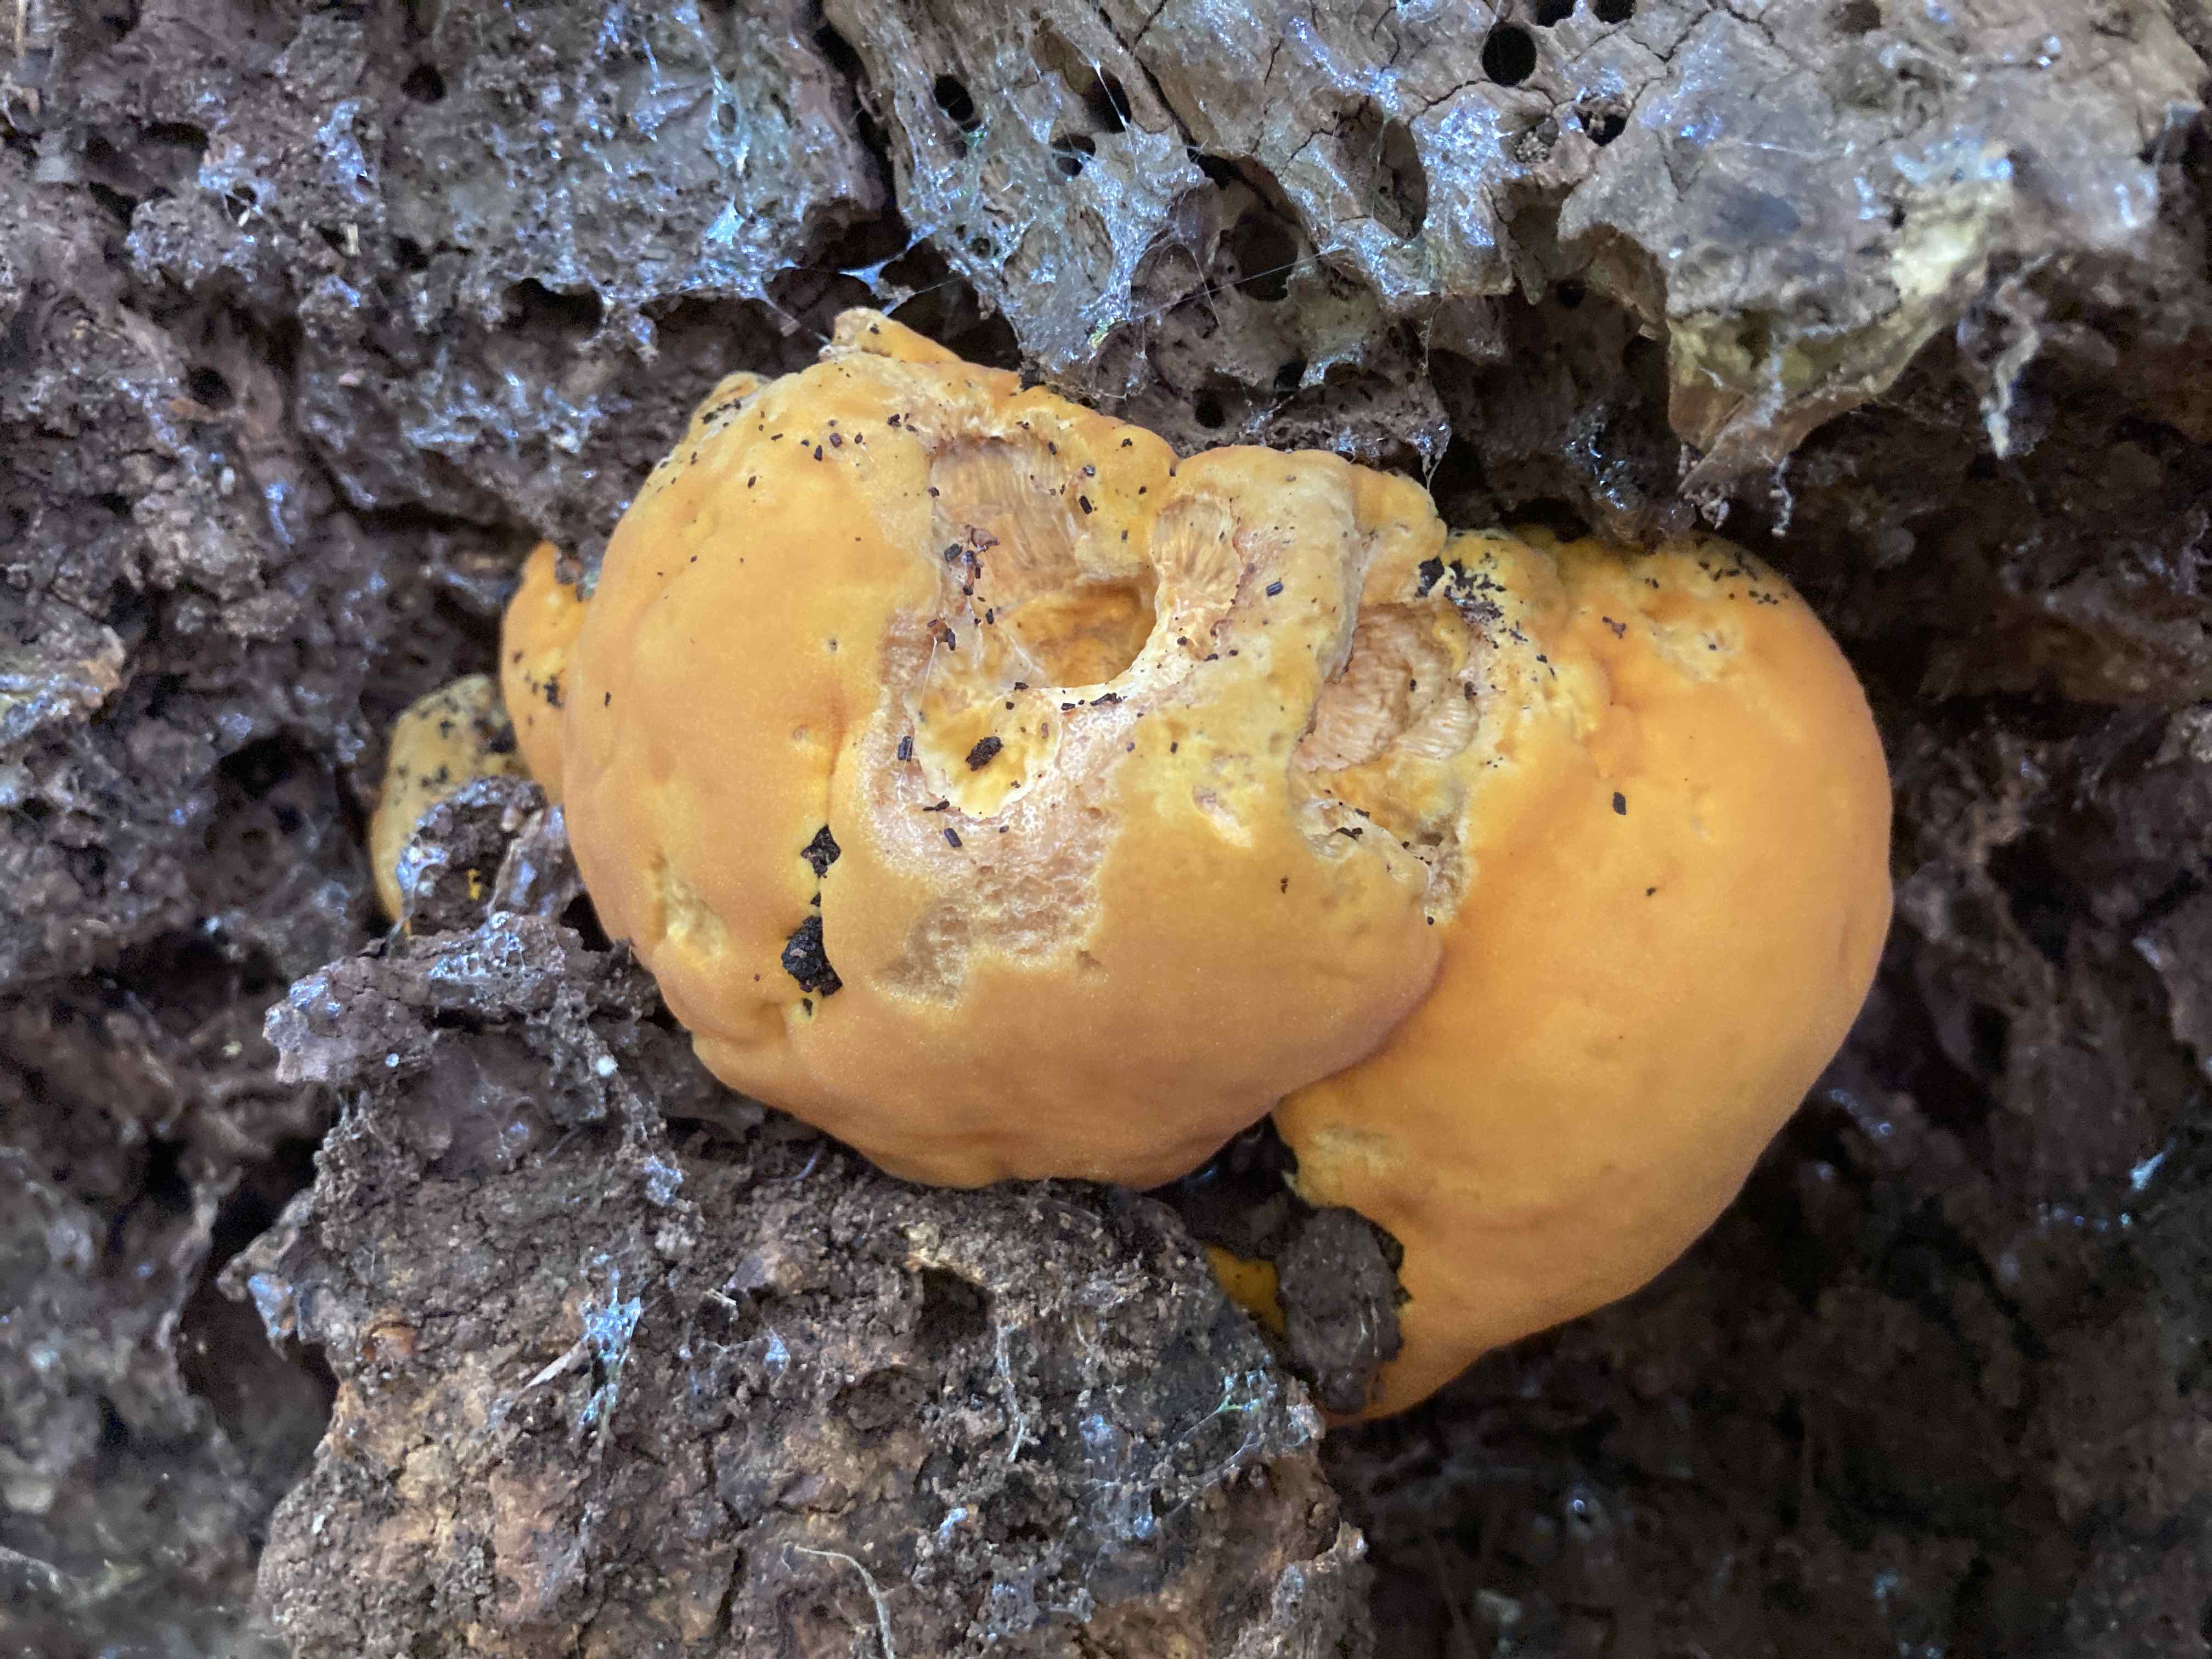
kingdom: Fungi
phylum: Basidiomycota
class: Agaricomycetes
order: Polyporales
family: Phanerochaetaceae
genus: Hapalopilus
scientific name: Hapalopilus croceus
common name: safrangul pragtporesvamp
